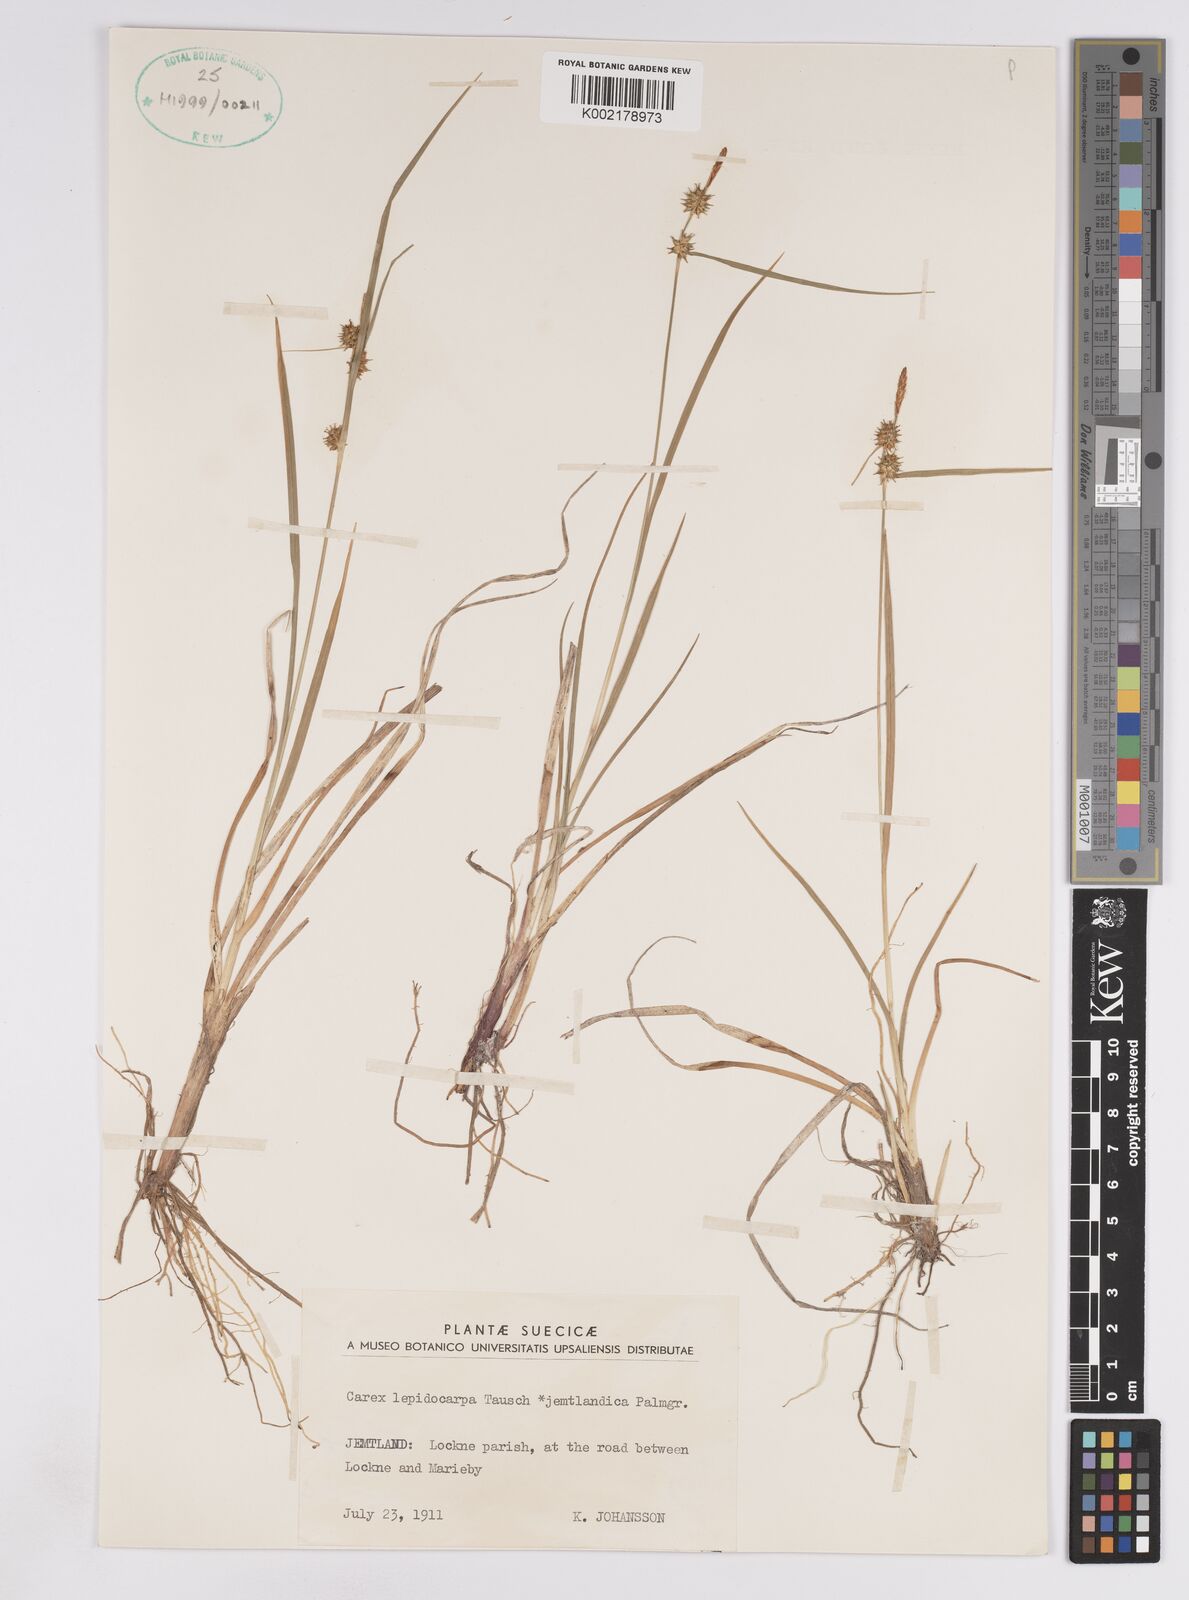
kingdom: Plantae
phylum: Tracheophyta
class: Liliopsida
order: Poales
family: Cyperaceae
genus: Carex
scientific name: Carex lepidocarpa
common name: Long-stalked yellow-sedge
